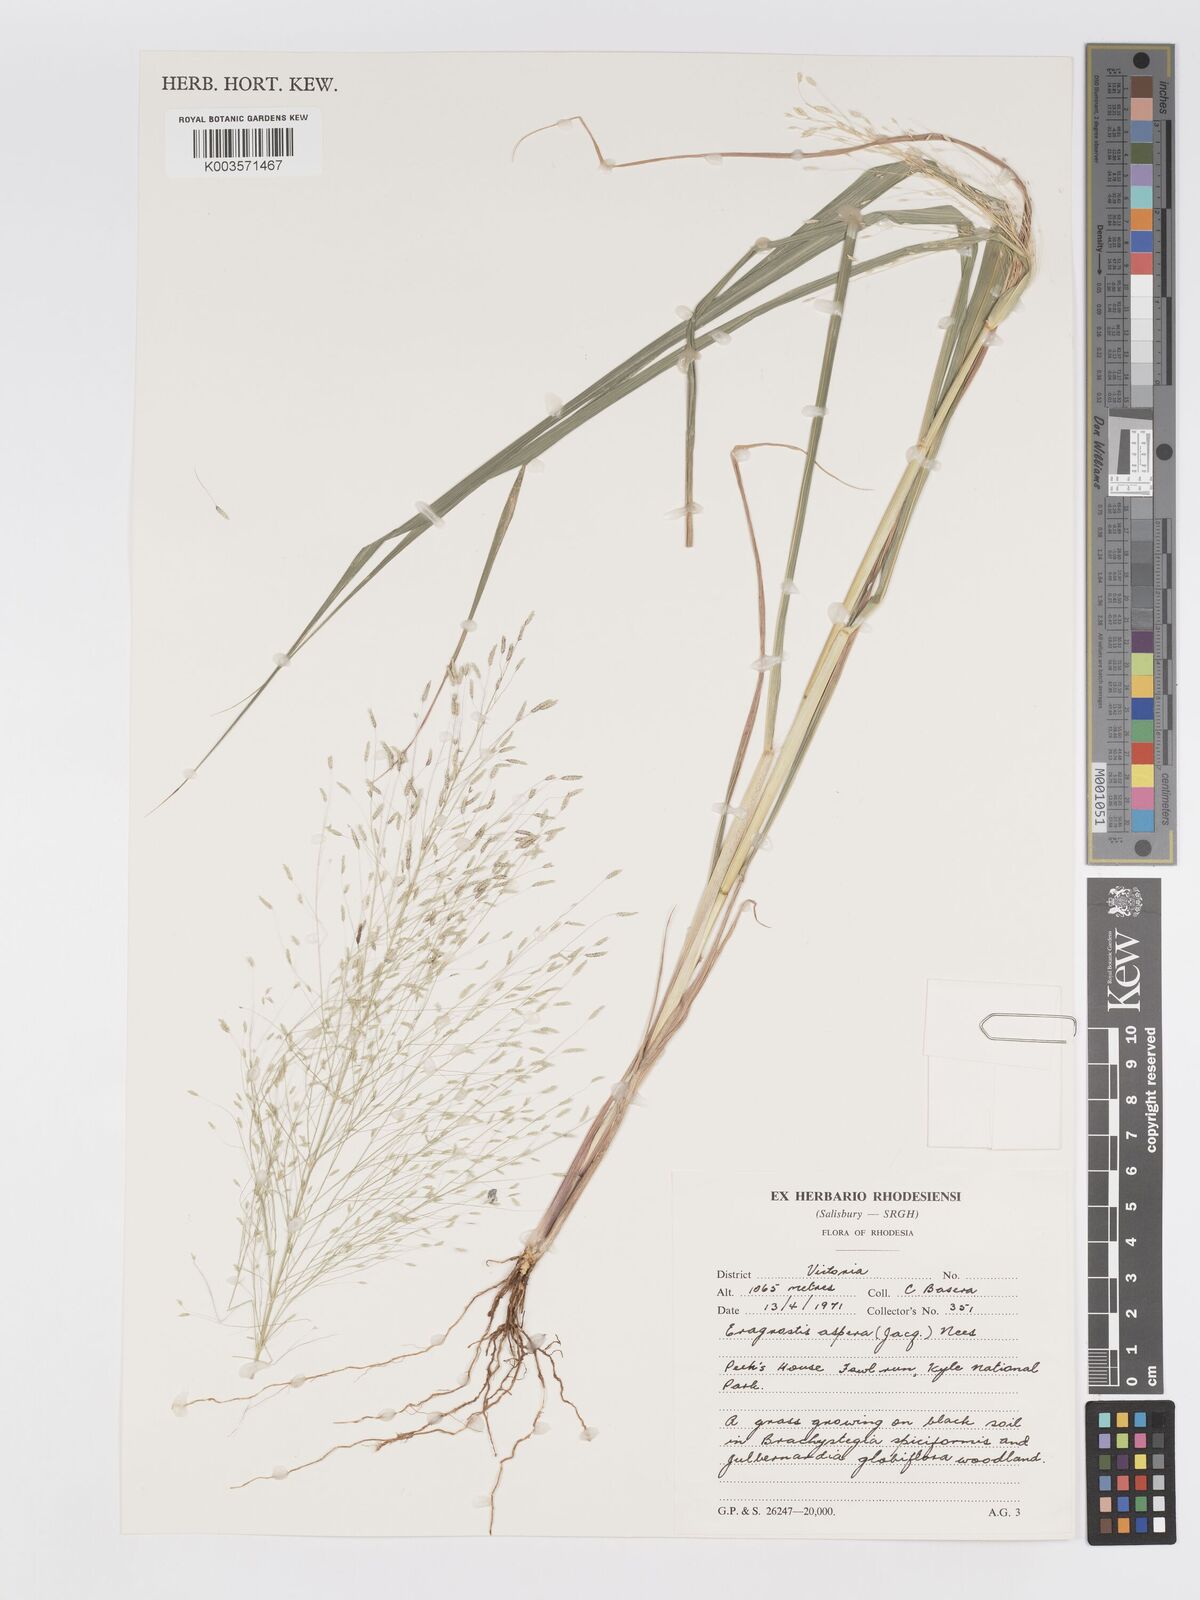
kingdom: Plantae
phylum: Tracheophyta
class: Liliopsida
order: Poales
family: Poaceae
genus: Eragrostis
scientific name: Eragrostis aspera
